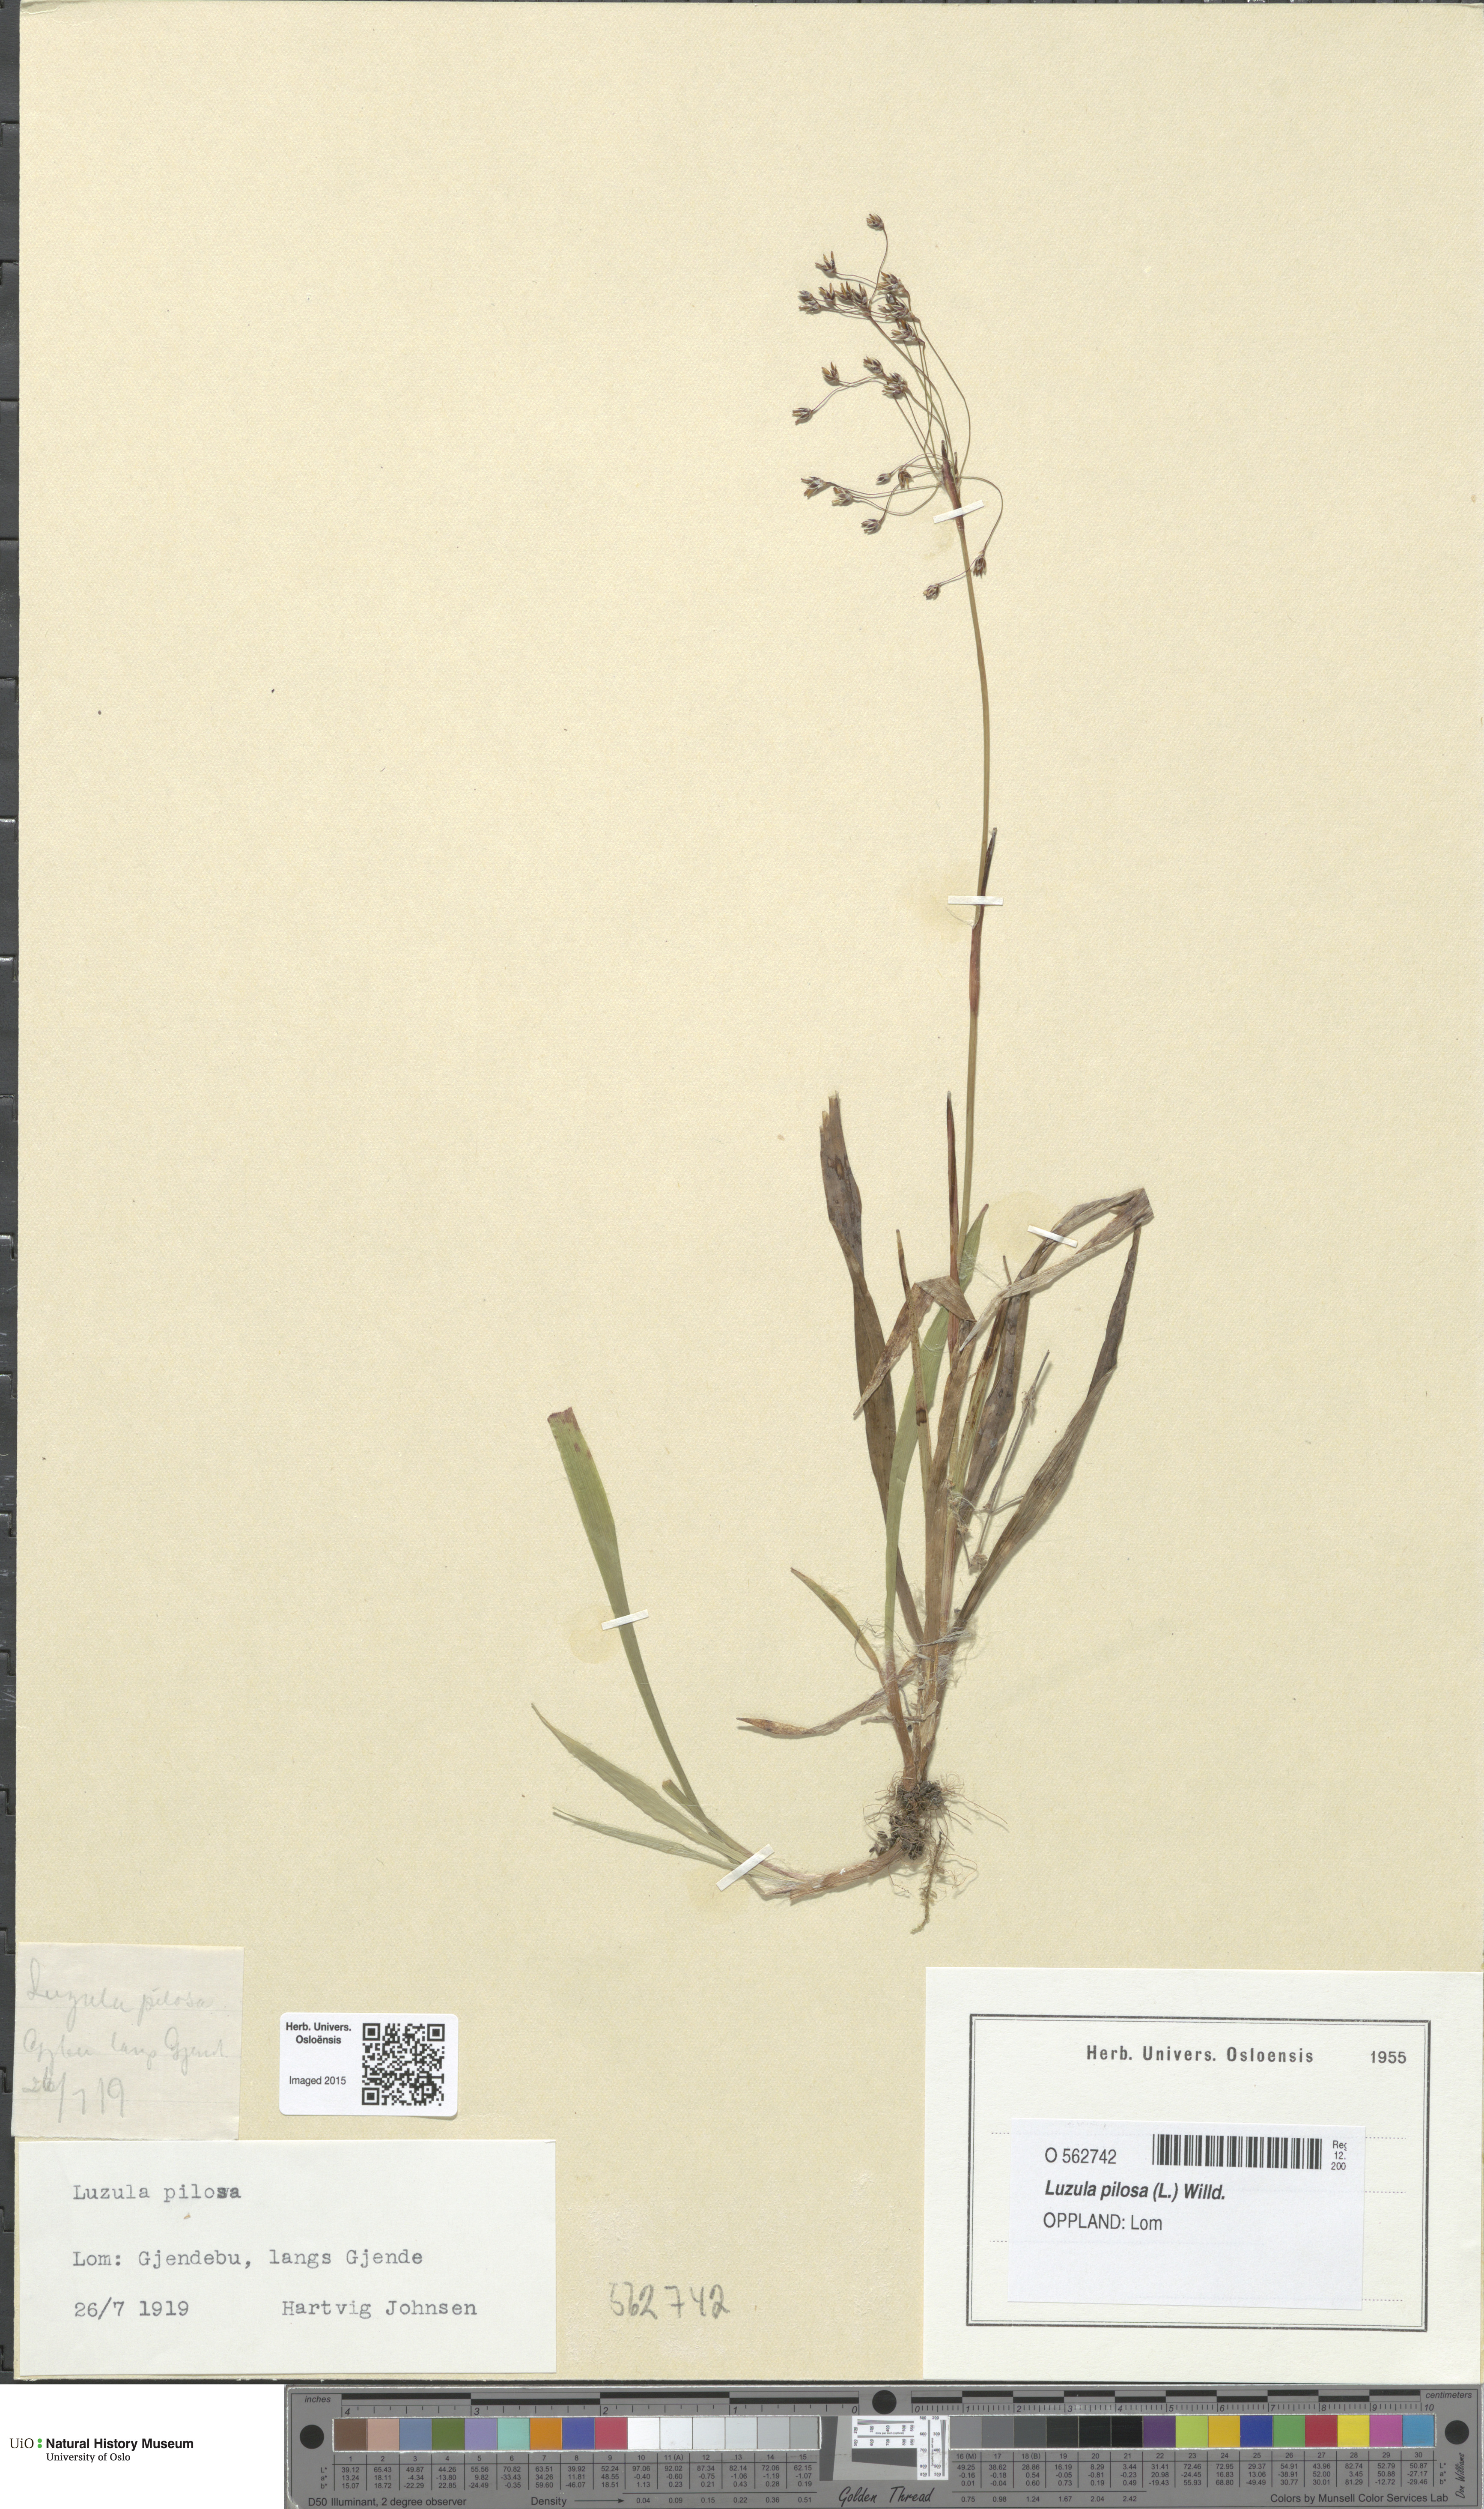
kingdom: Plantae
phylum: Tracheophyta
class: Liliopsida
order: Poales
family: Juncaceae
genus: Luzula
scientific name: Luzula pilosa
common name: Hairy wood-rush
